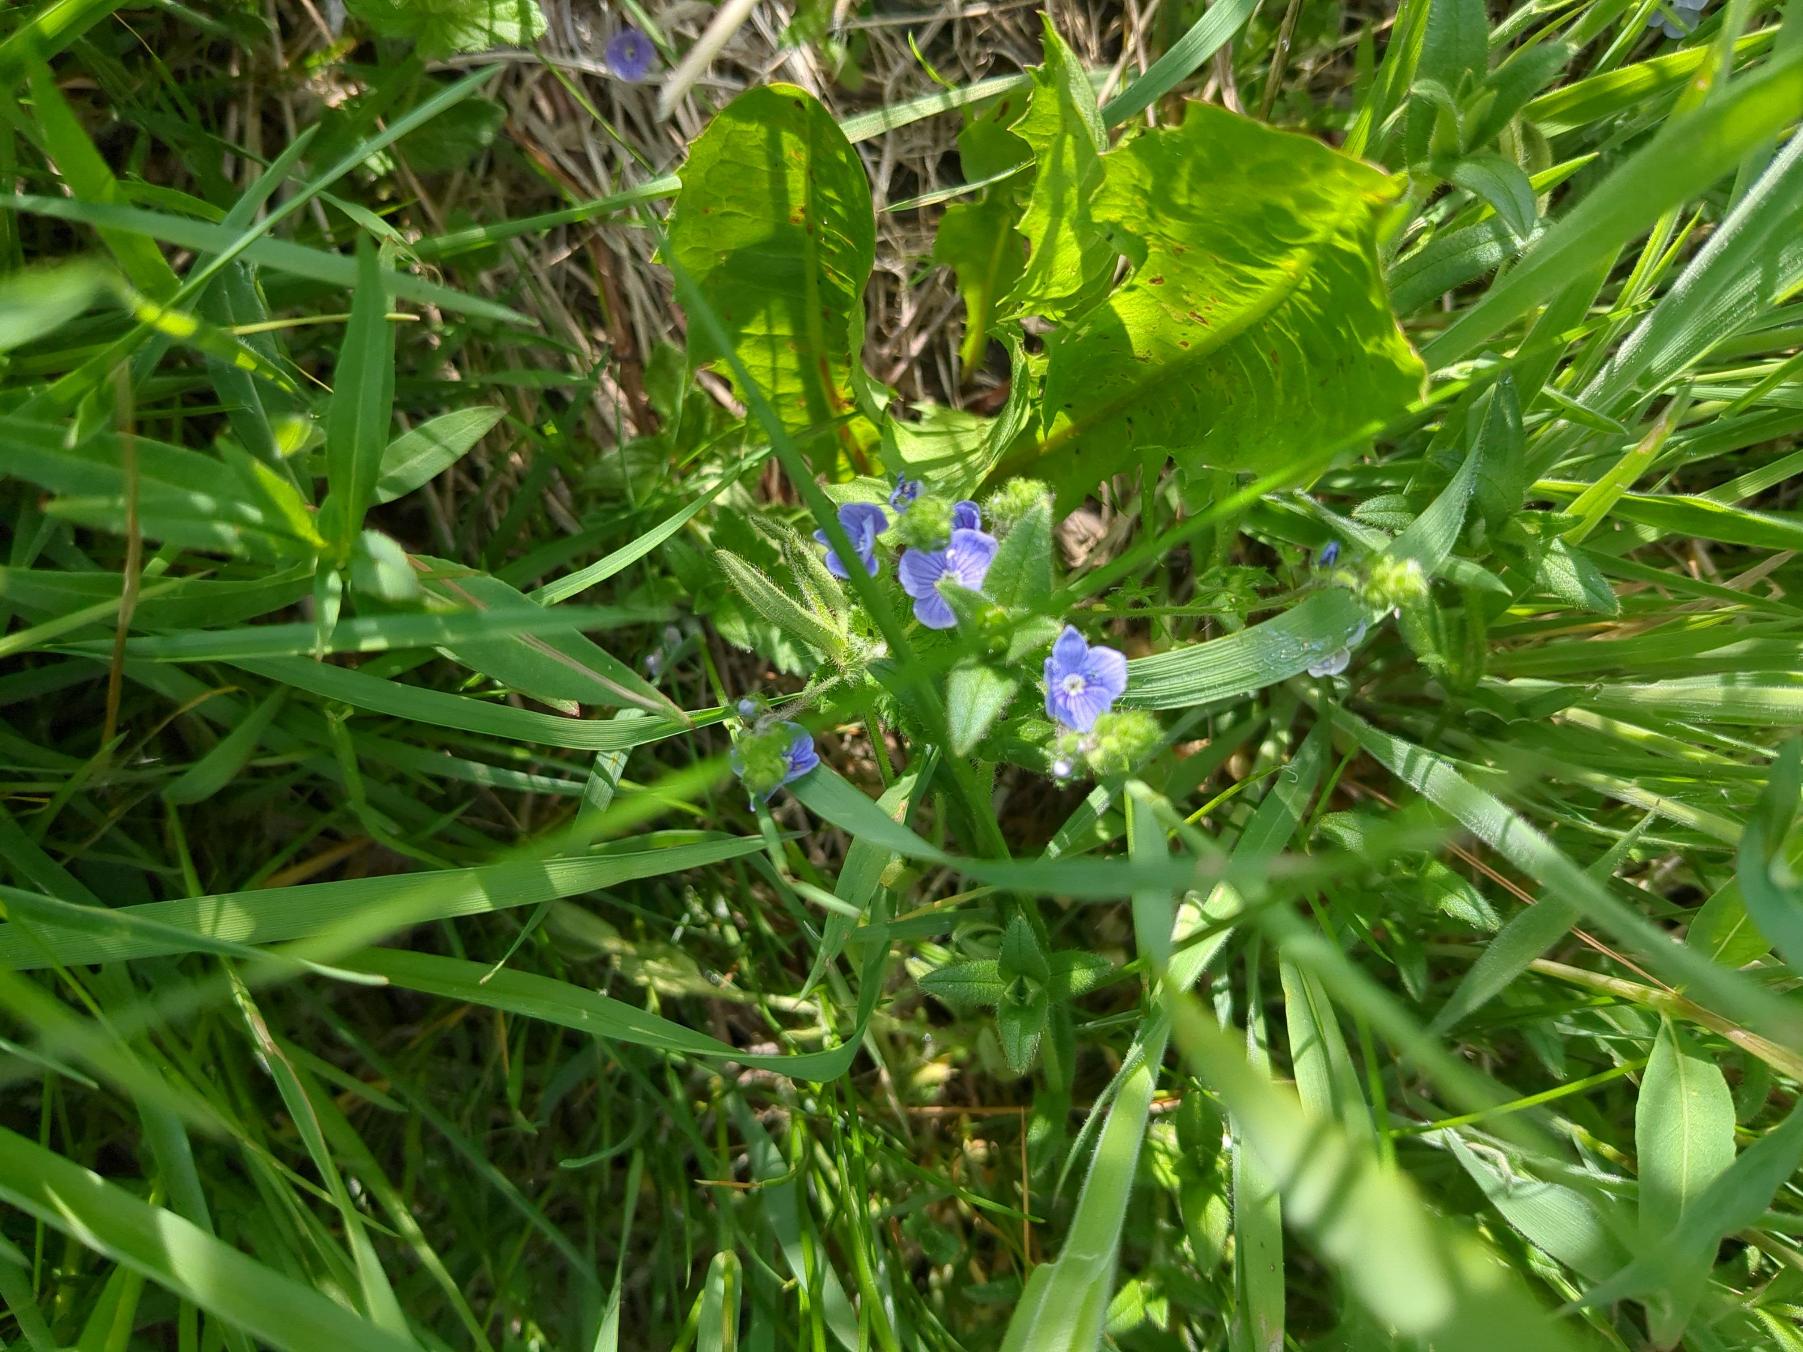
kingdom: Plantae
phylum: Tracheophyta
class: Magnoliopsida
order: Lamiales
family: Plantaginaceae
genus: Veronica
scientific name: Veronica chamaedrys
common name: Tveskægget ærenpris
